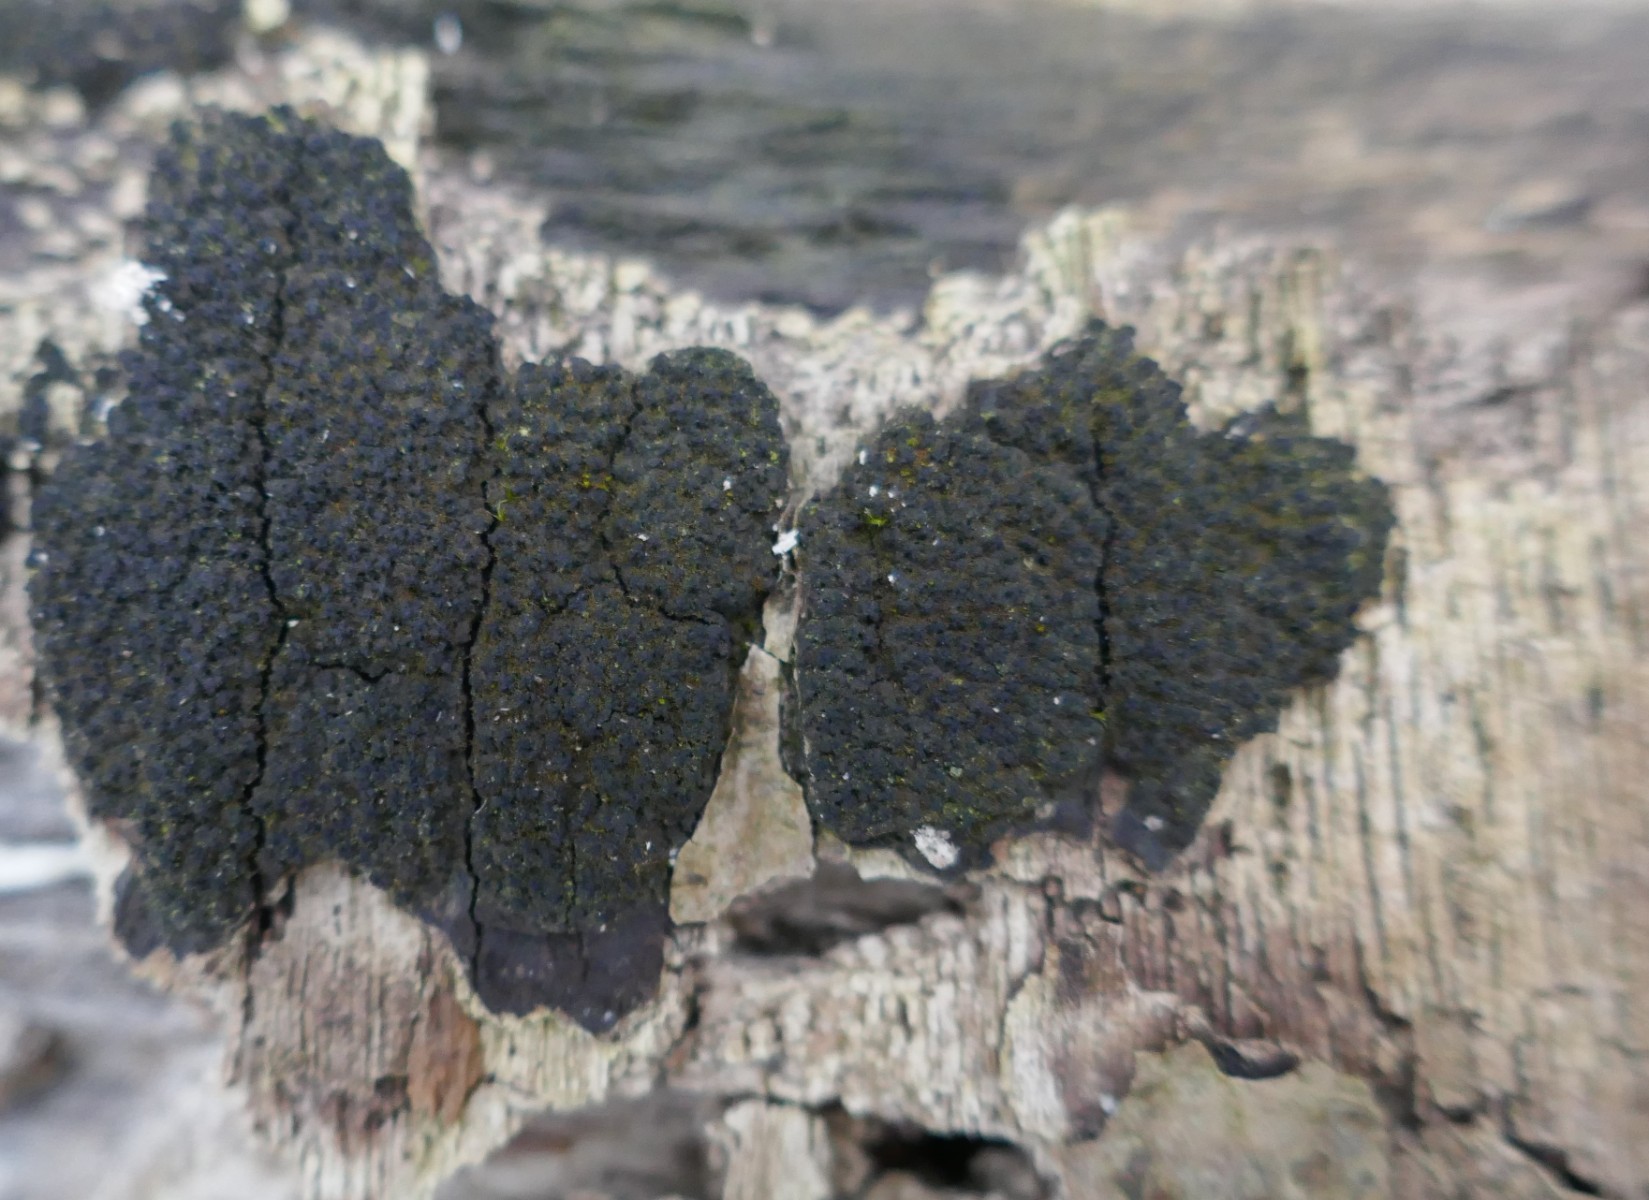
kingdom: Fungi
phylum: Ascomycota
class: Sordariomycetes
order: Xylariales
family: Diatrypaceae
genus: Eutypa
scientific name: Eutypa spinosa
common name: grov kulskorpe
